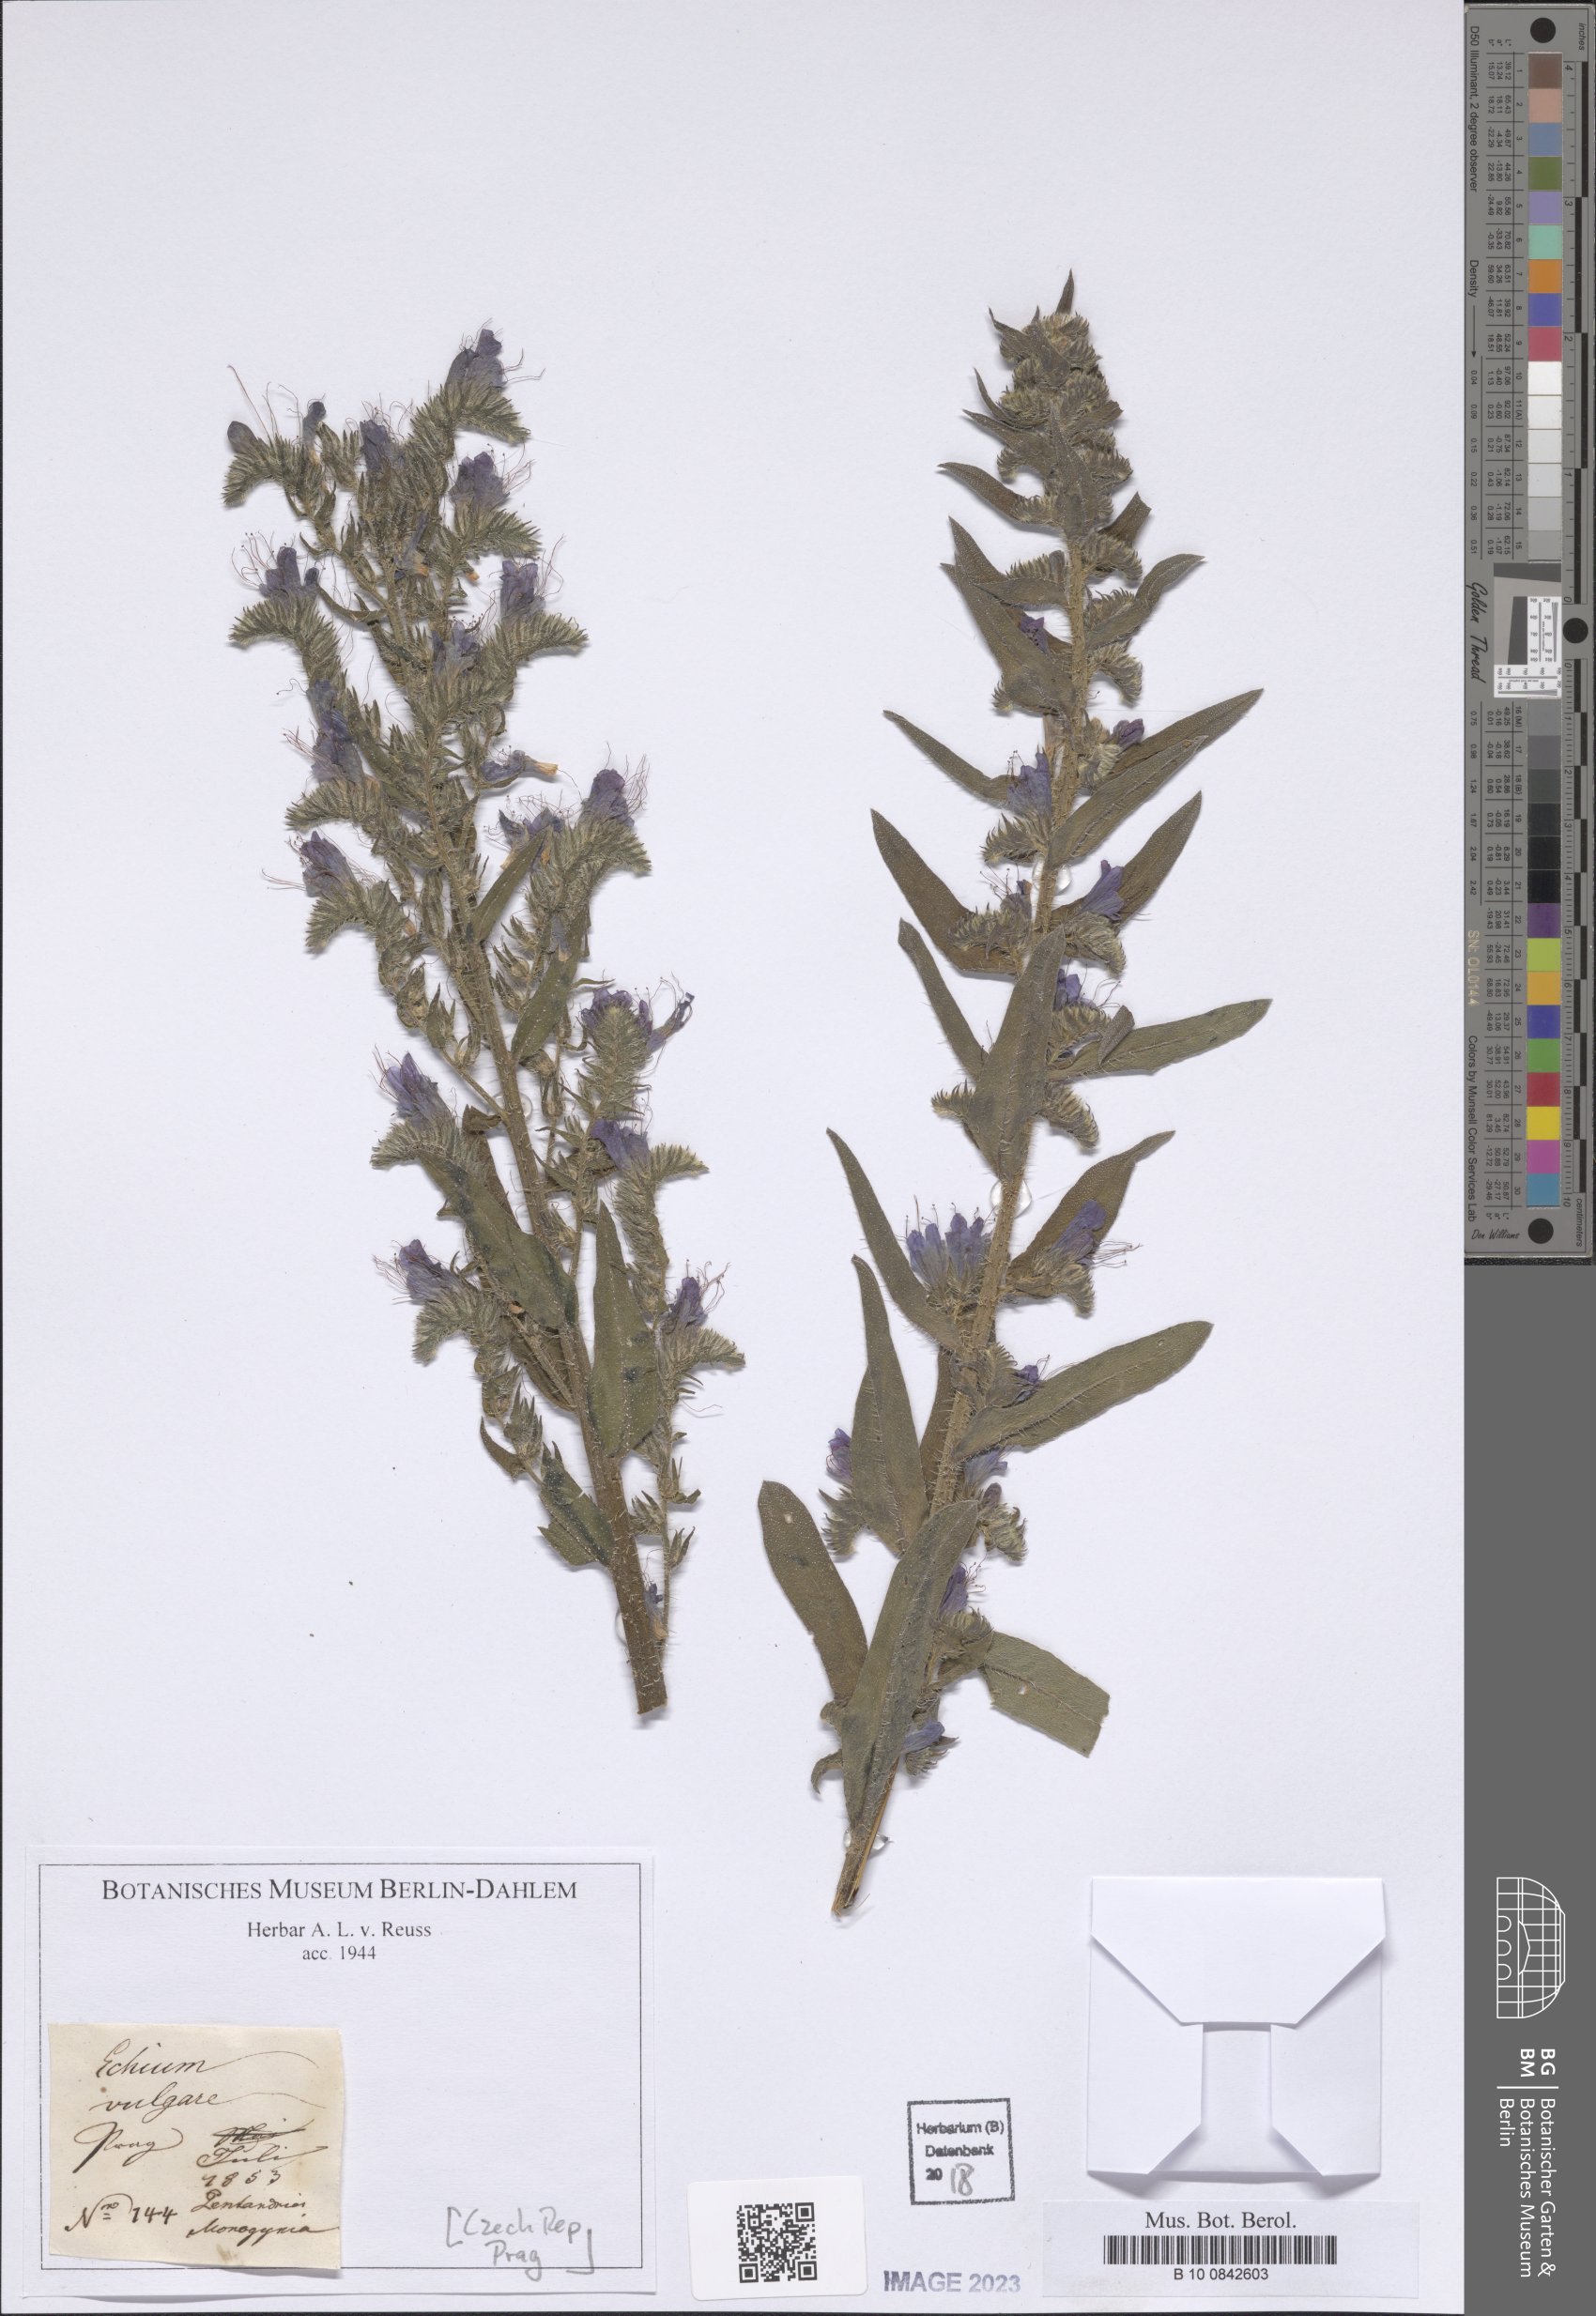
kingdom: Plantae
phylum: Tracheophyta
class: Magnoliopsida
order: Boraginales
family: Boraginaceae
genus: Echium
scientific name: Echium vulgare
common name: Common viper's bugloss
